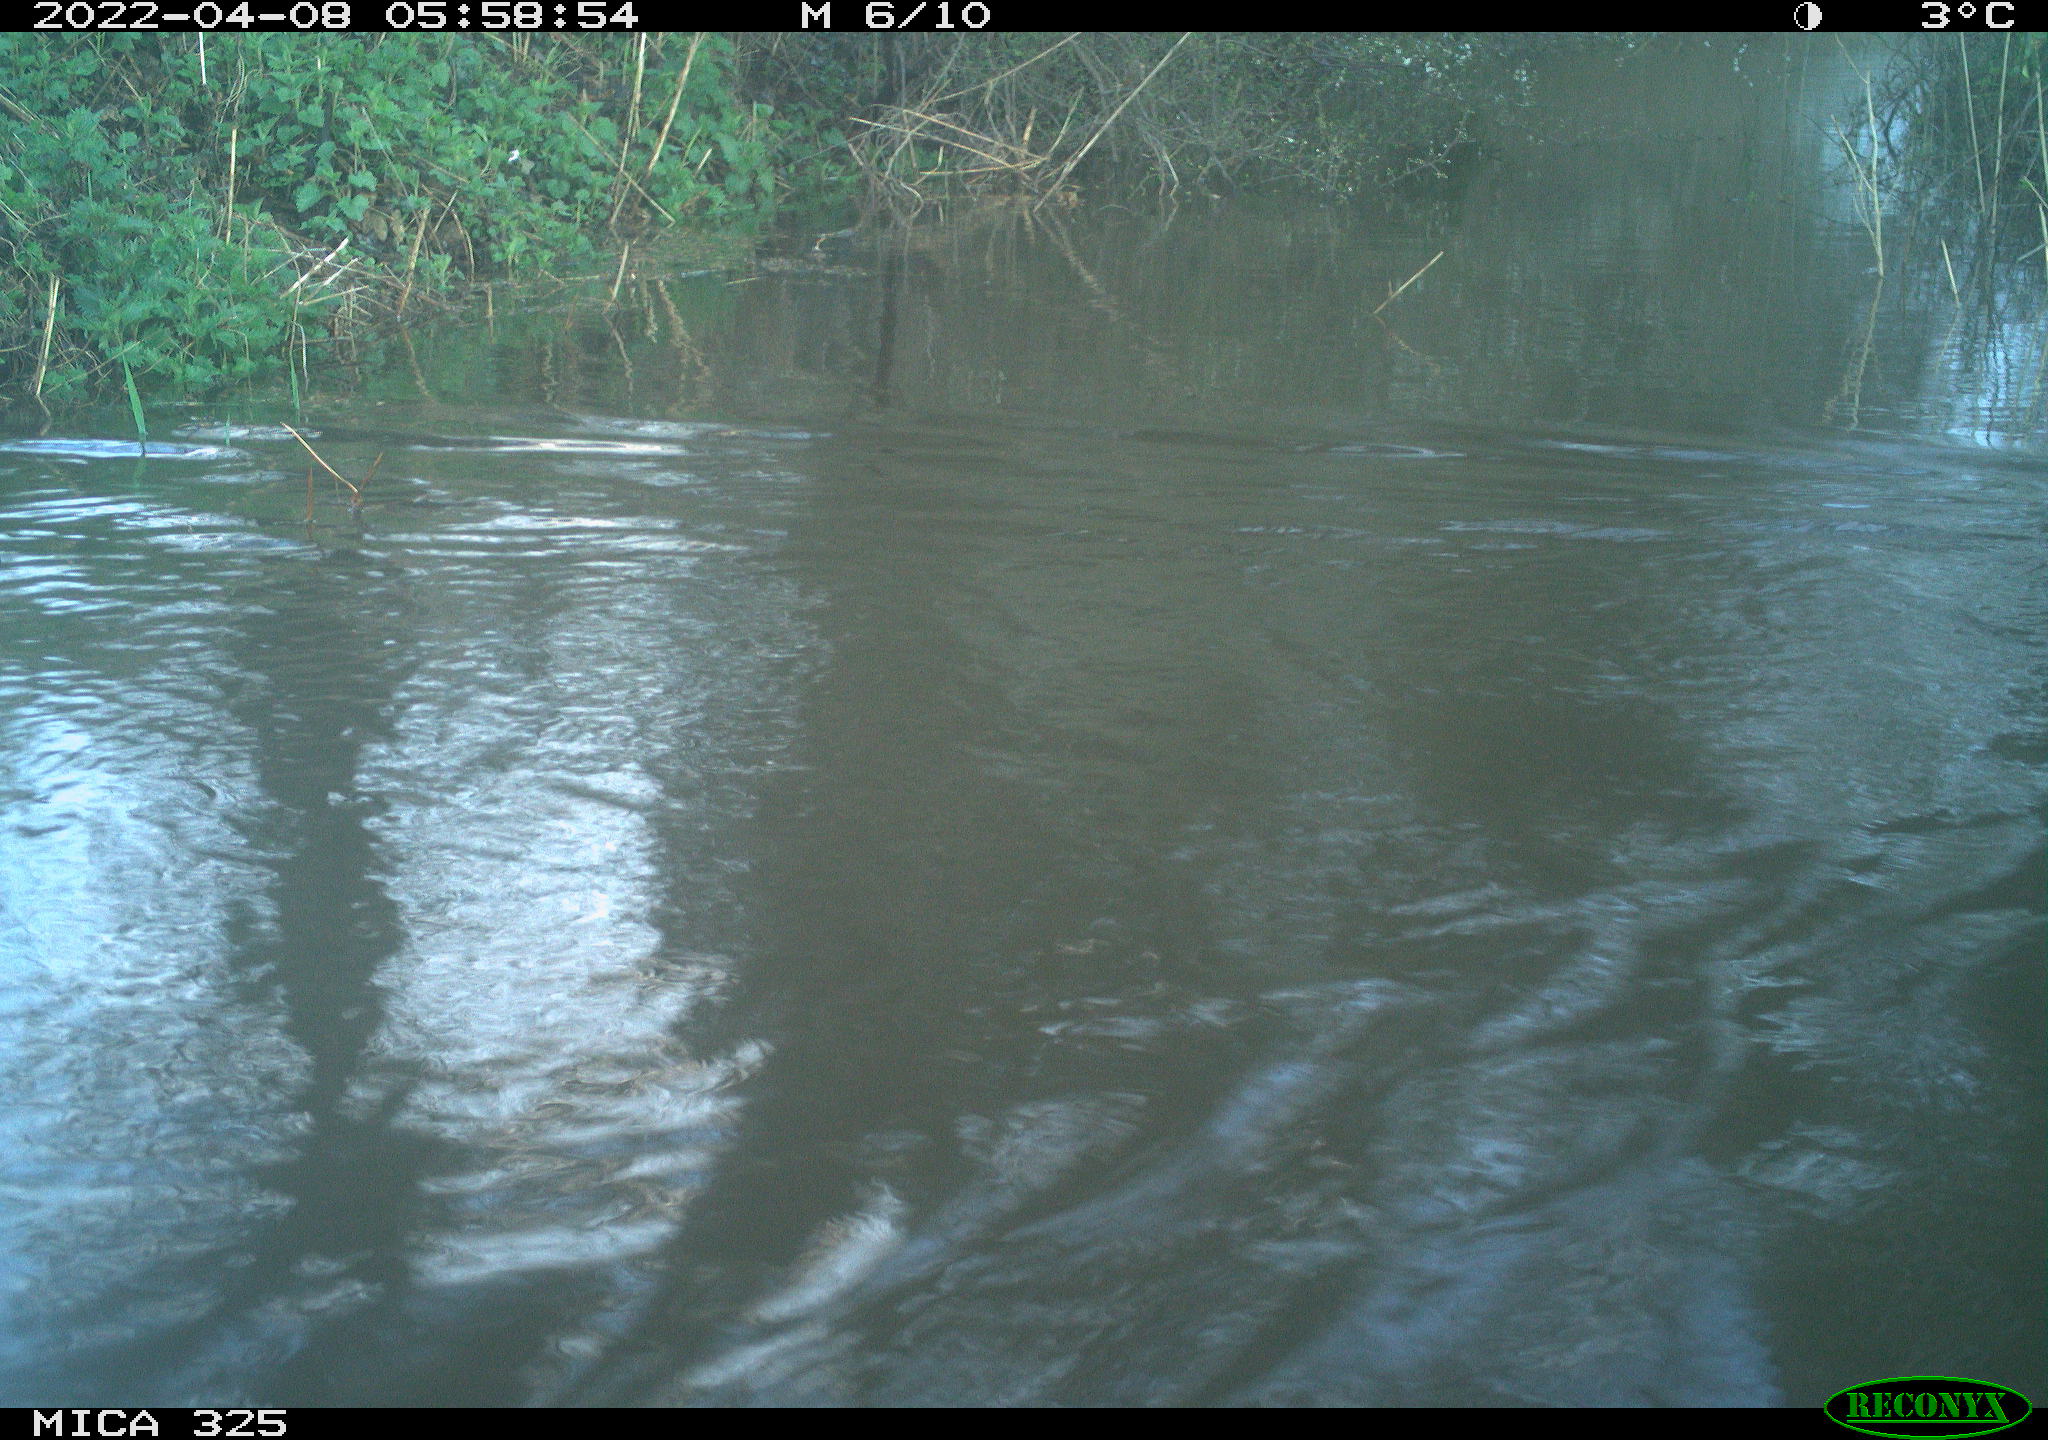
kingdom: Animalia
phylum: Chordata
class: Aves
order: Anseriformes
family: Anatidae
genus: Anas
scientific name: Anas platyrhynchos
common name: Mallard
